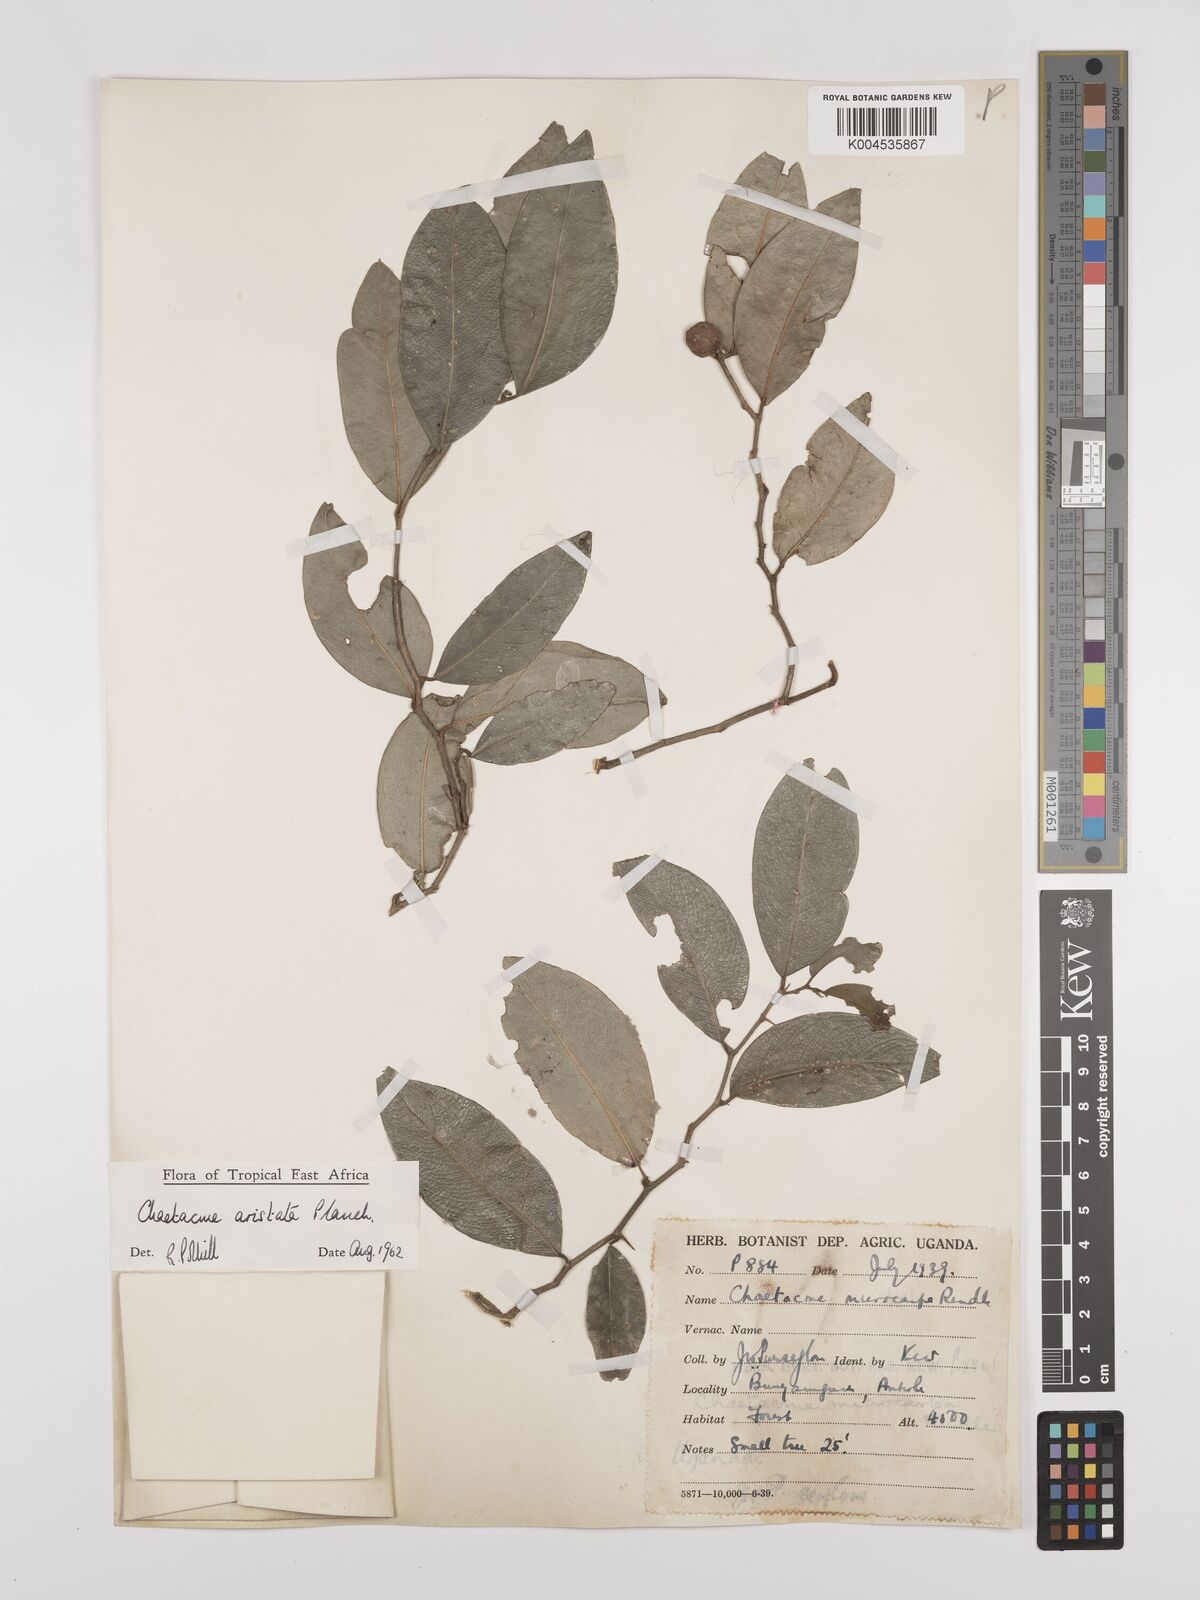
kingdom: Plantae
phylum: Tracheophyta
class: Magnoliopsida
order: Rosales
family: Cannabaceae
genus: Chaetachme
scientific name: Chaetachme aristata
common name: Thorny elm
